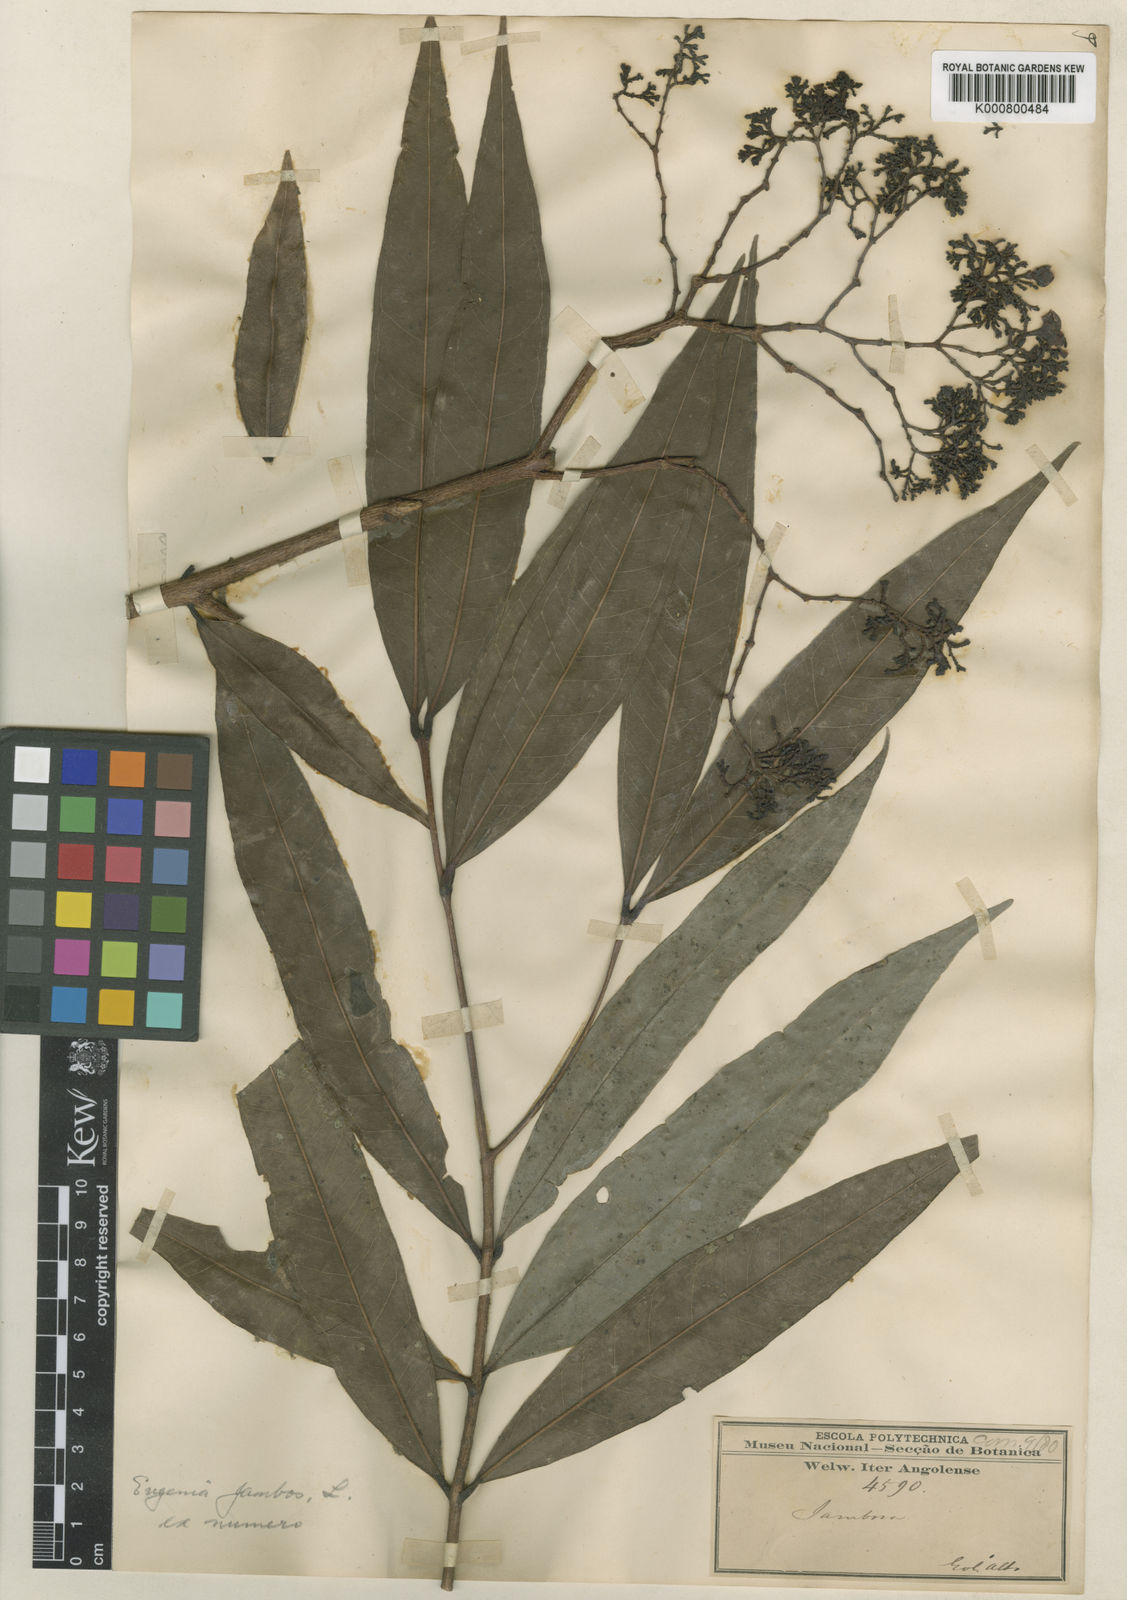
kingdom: Plantae
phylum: Tracheophyta
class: Magnoliopsida
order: Myrtales
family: Myrtaceae
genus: Syzygium
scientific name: Syzygium jambos
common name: Malabar plum
